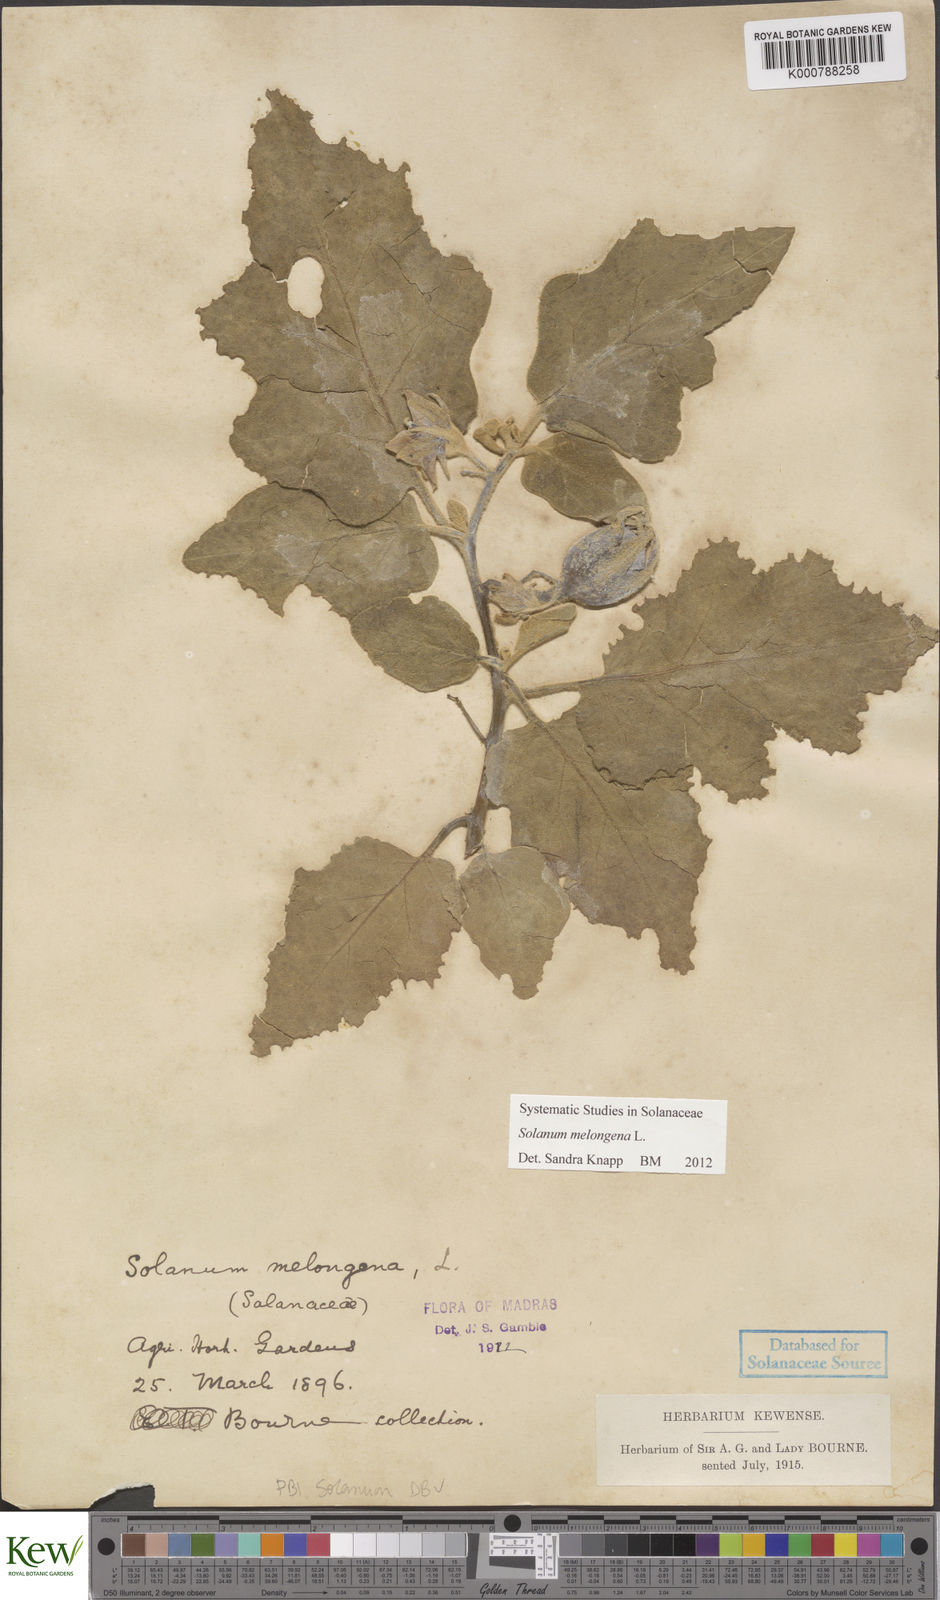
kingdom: Plantae
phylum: Tracheophyta
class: Magnoliopsida
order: Solanales
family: Solanaceae
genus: Solanum
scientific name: Solanum melongena
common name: Eggplant
